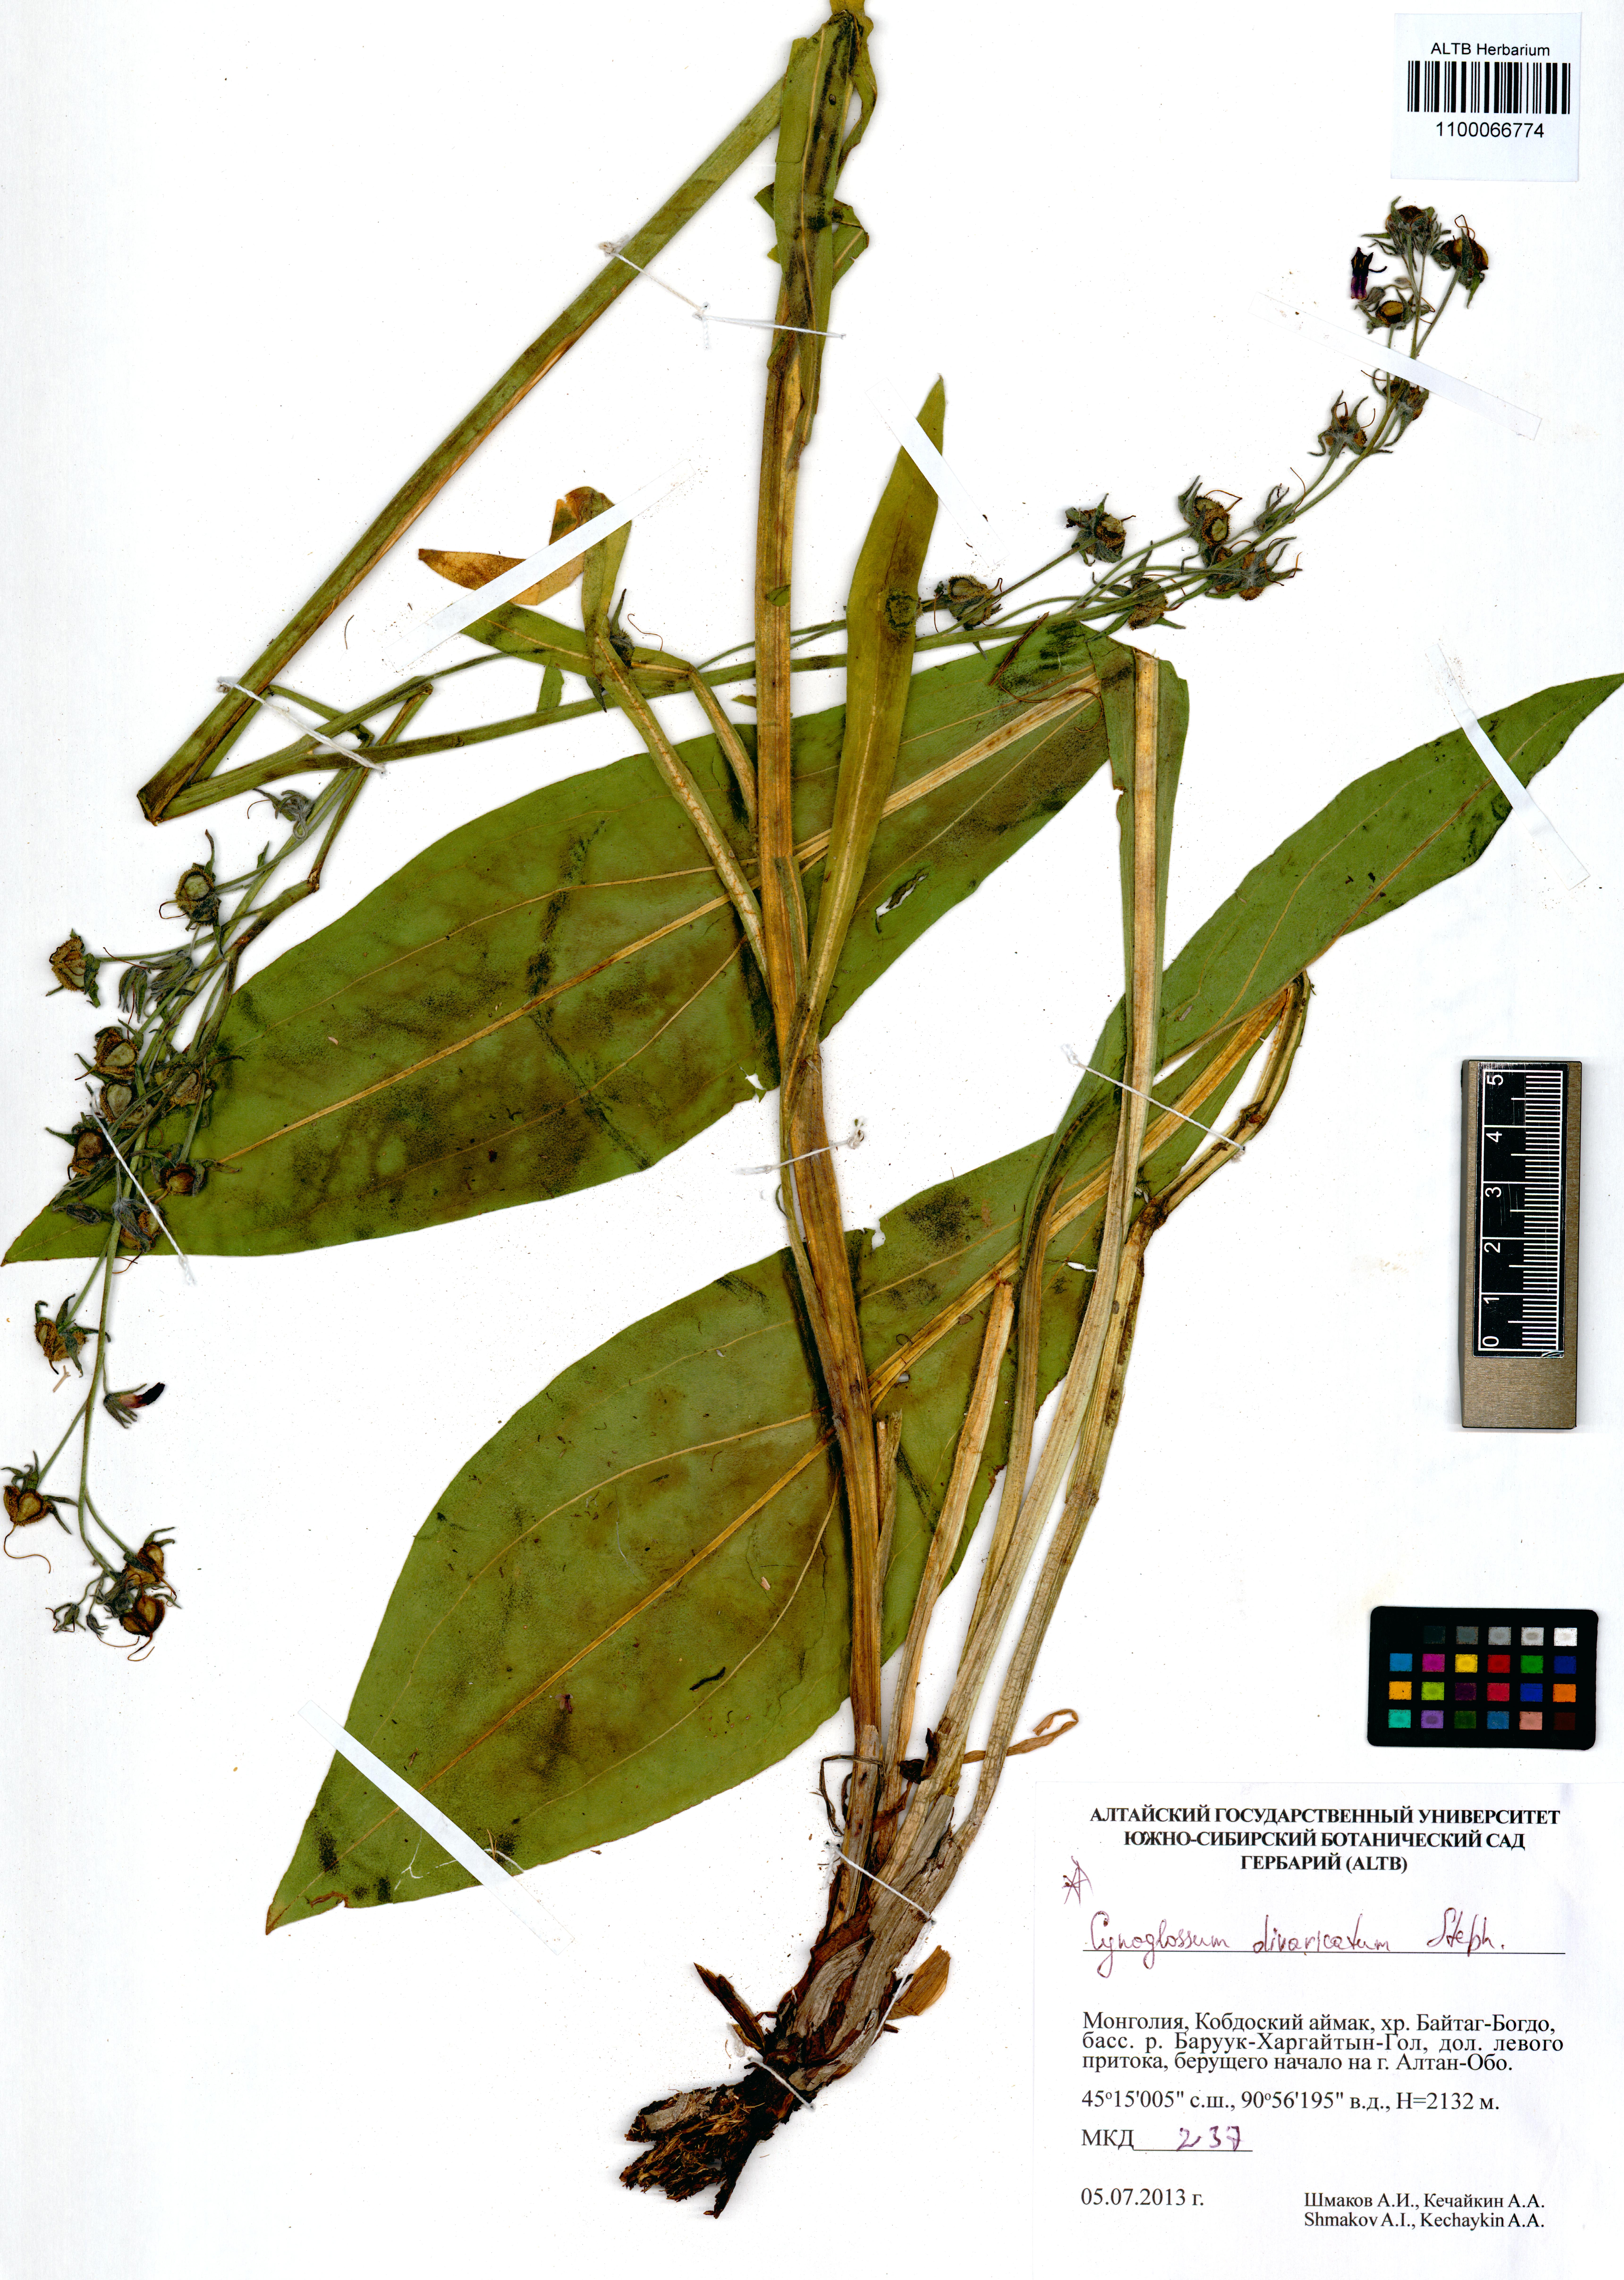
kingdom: Plantae
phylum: Tracheophyta
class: Magnoliopsida
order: Boraginales
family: Boraginaceae
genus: Cynoglossum
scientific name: Cynoglossum divaricatum
